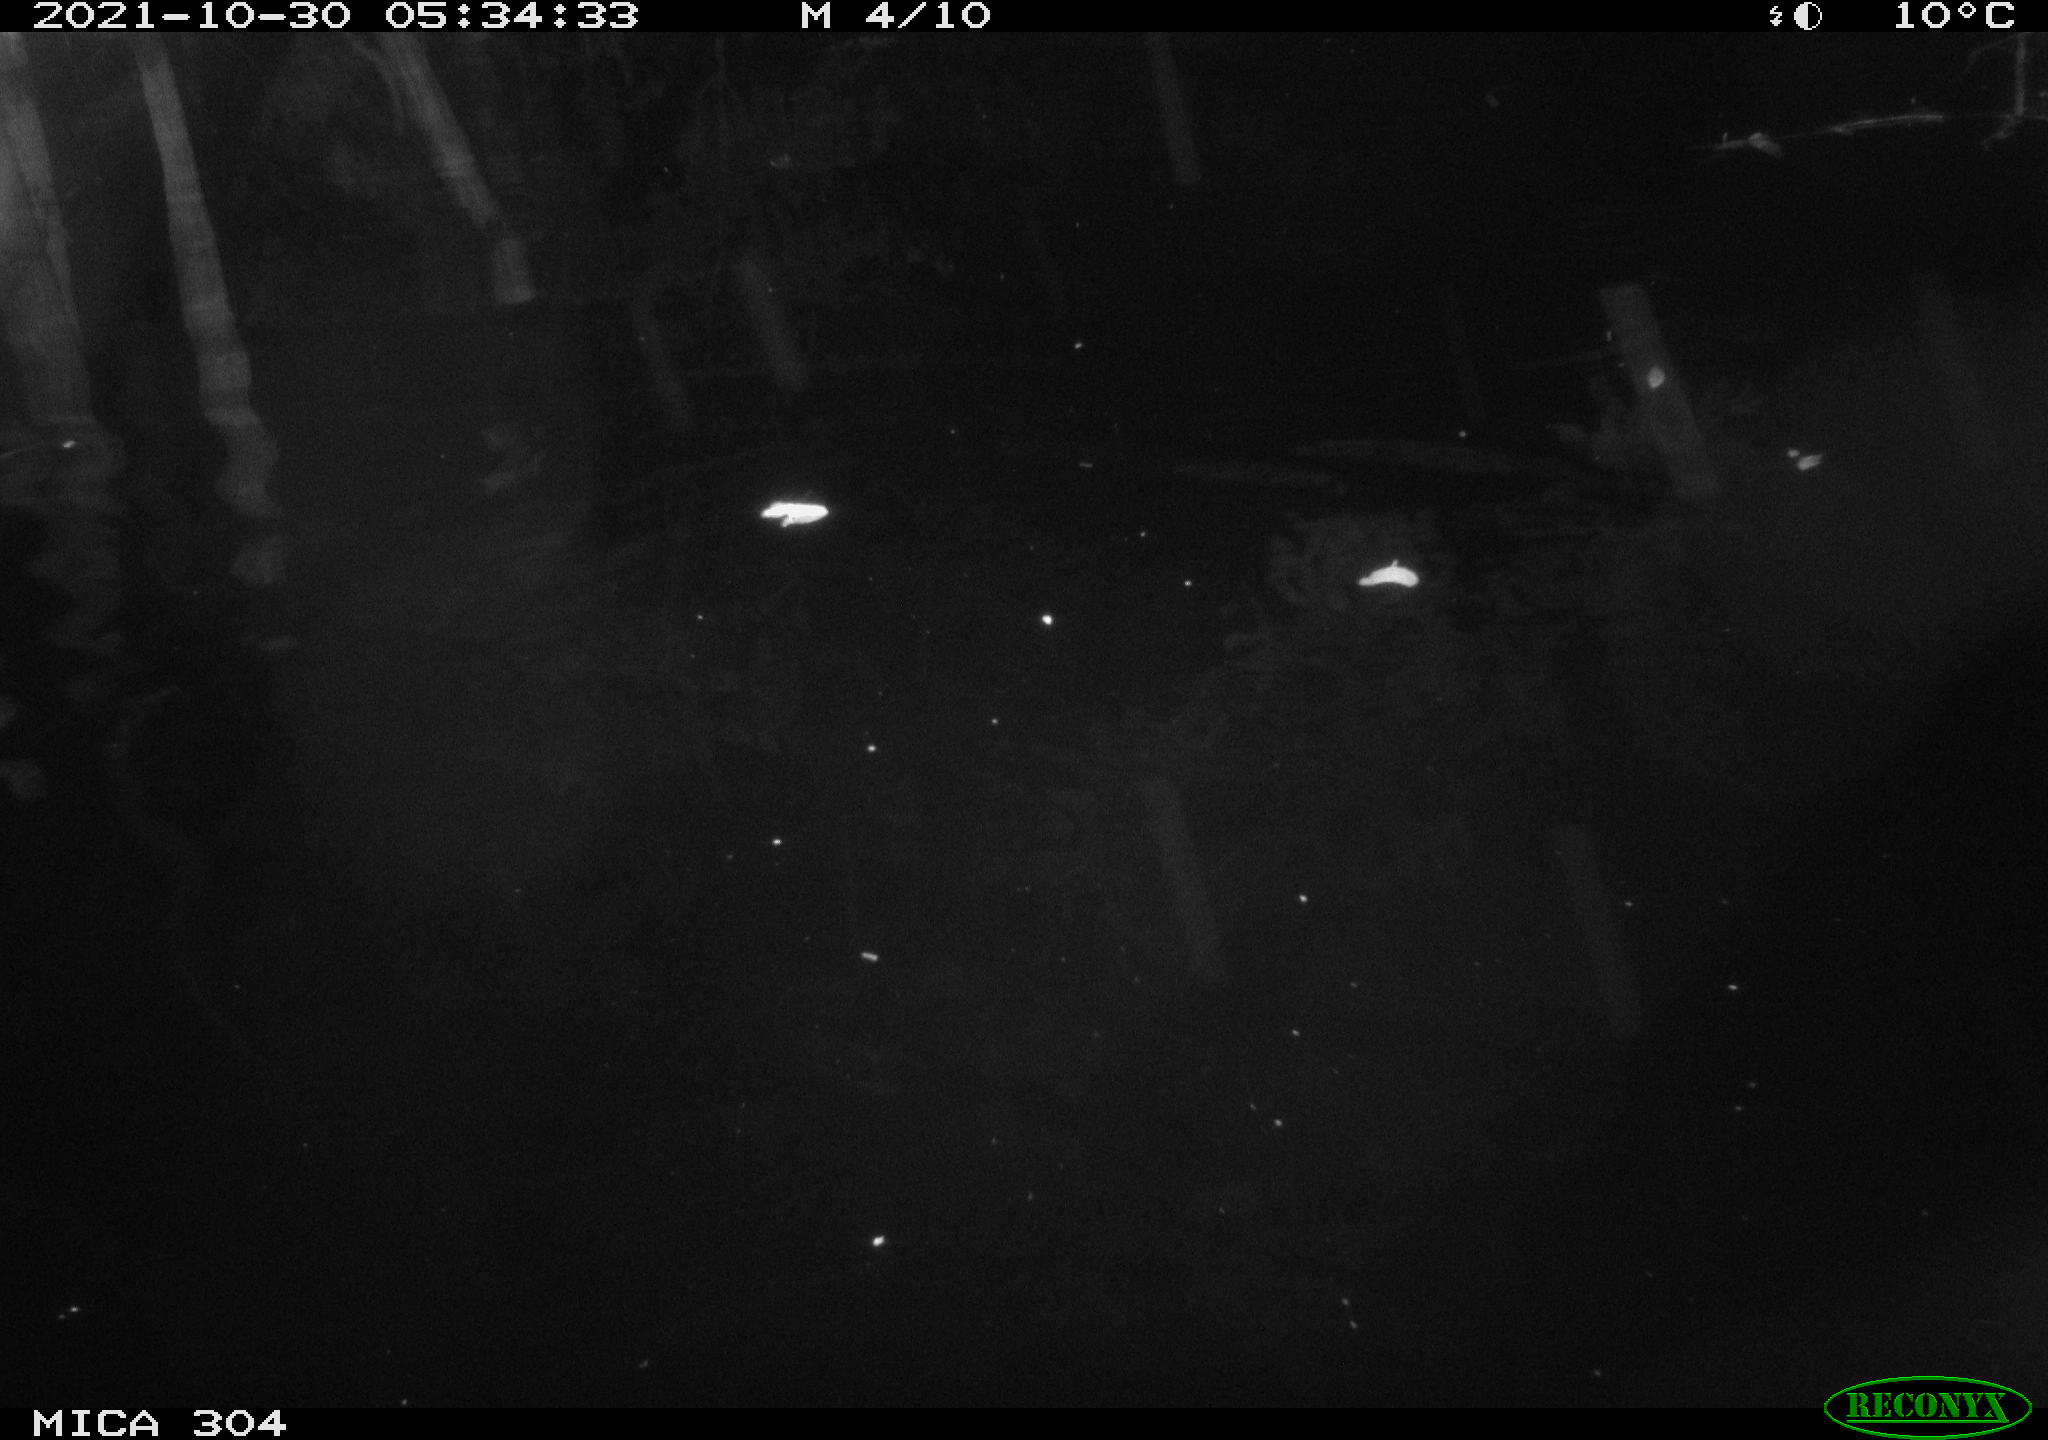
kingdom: Animalia
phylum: Chordata
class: Mammalia
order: Rodentia
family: Muridae
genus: Rattus
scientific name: Rattus norvegicus
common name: Brown rat
